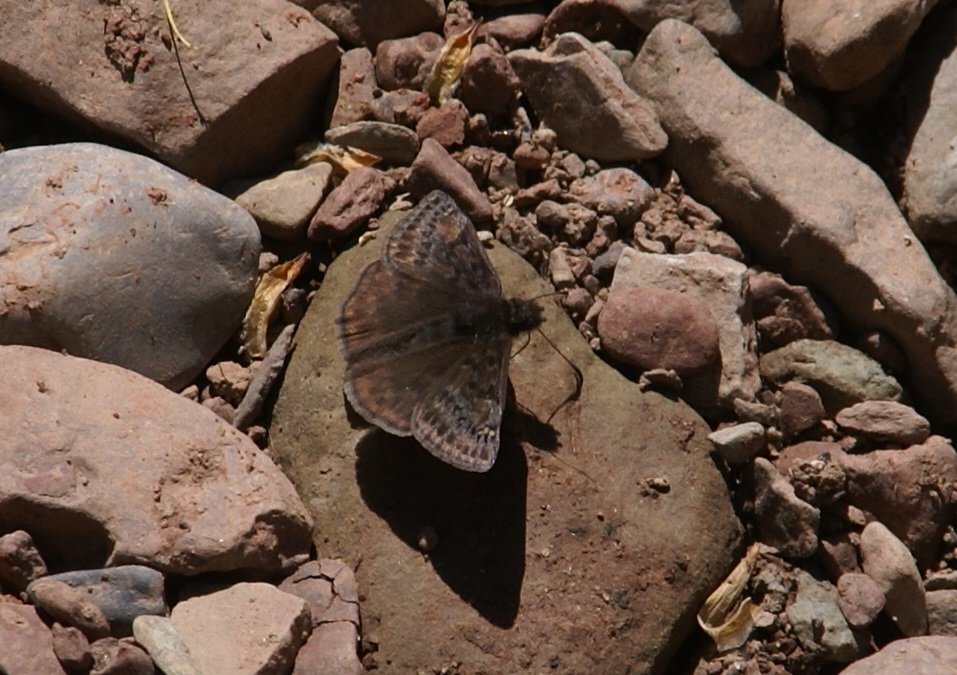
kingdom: Animalia
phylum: Arthropoda
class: Insecta
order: Lepidoptera
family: Hesperiidae
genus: Gesta
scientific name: Gesta
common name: Wild Indigo Duskywing
